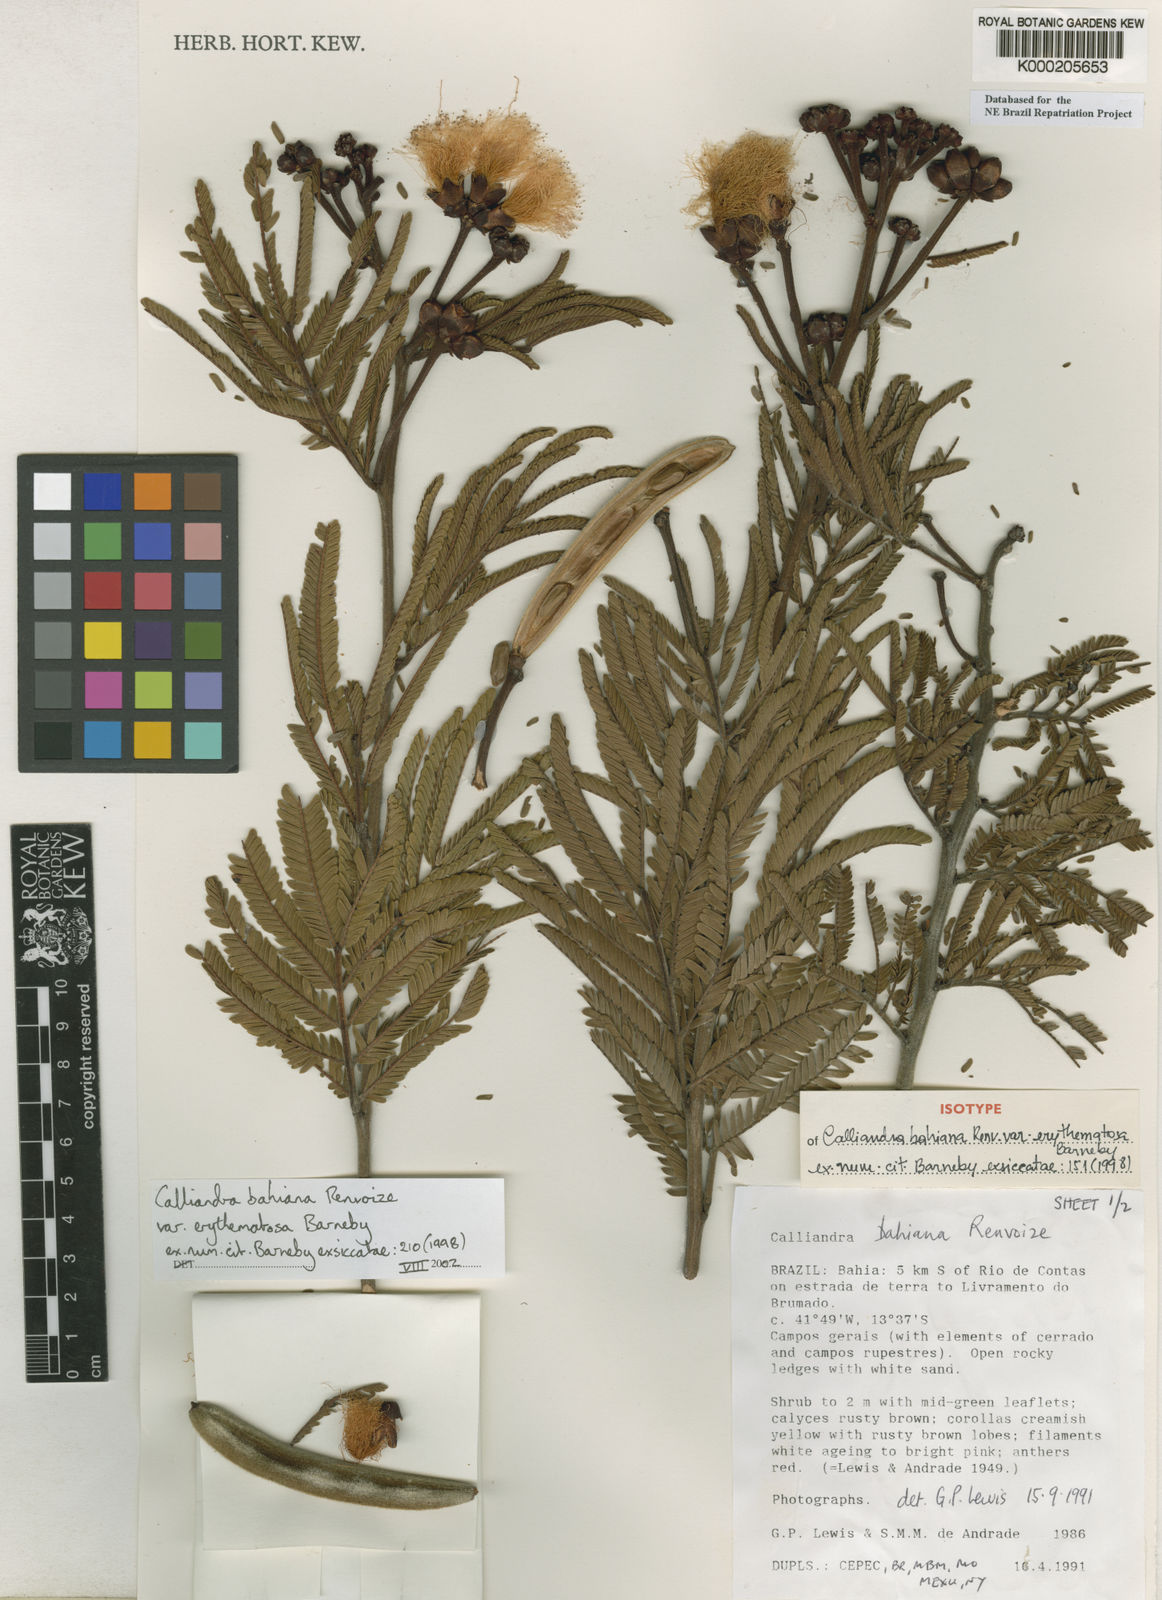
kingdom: Plantae
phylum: Tracheophyta
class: Magnoliopsida
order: Fabales
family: Fabaceae
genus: Calliandra
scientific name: Calliandra bahiana
